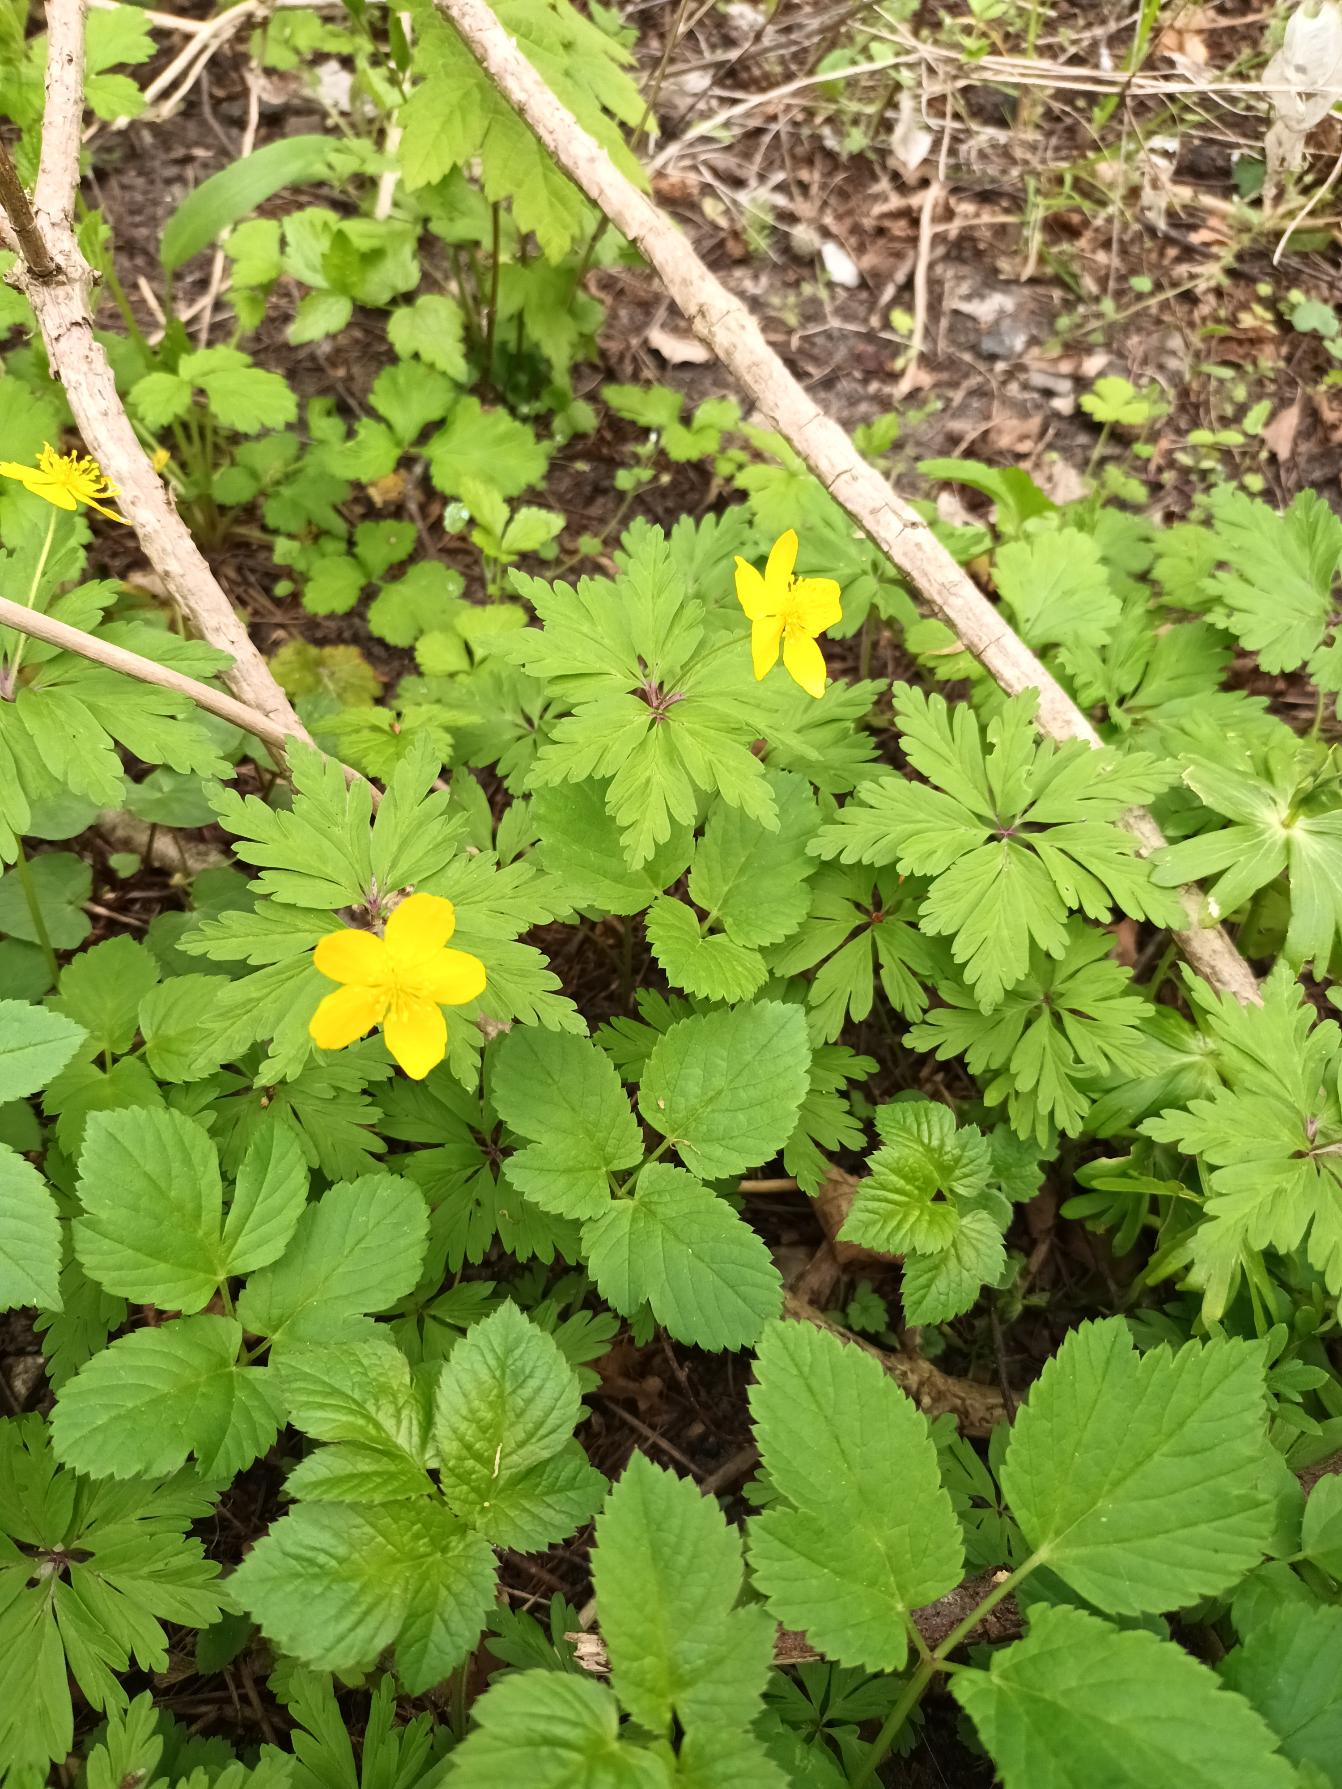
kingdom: Plantae
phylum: Tracheophyta
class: Magnoliopsida
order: Ranunculales
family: Ranunculaceae
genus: Anemone
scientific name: Anemone ranunculoides
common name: Gul anemone
